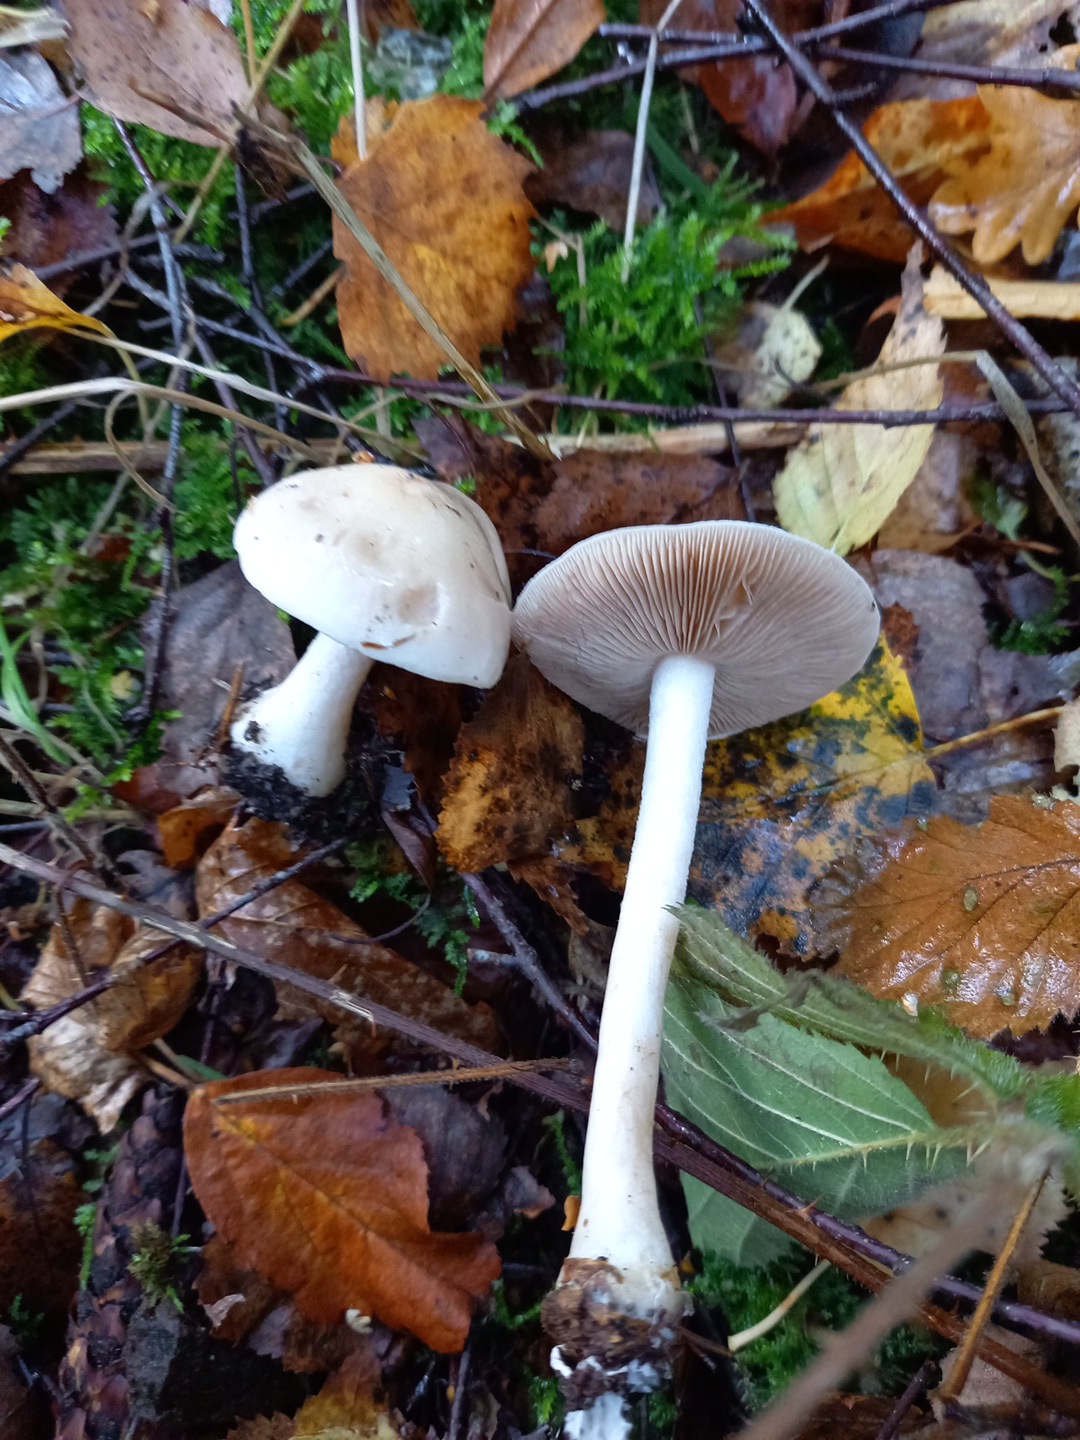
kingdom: Fungi
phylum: Basidiomycota
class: Agaricomycetes
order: Agaricales
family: Hymenogastraceae
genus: Hebeloma
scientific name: Hebeloma
